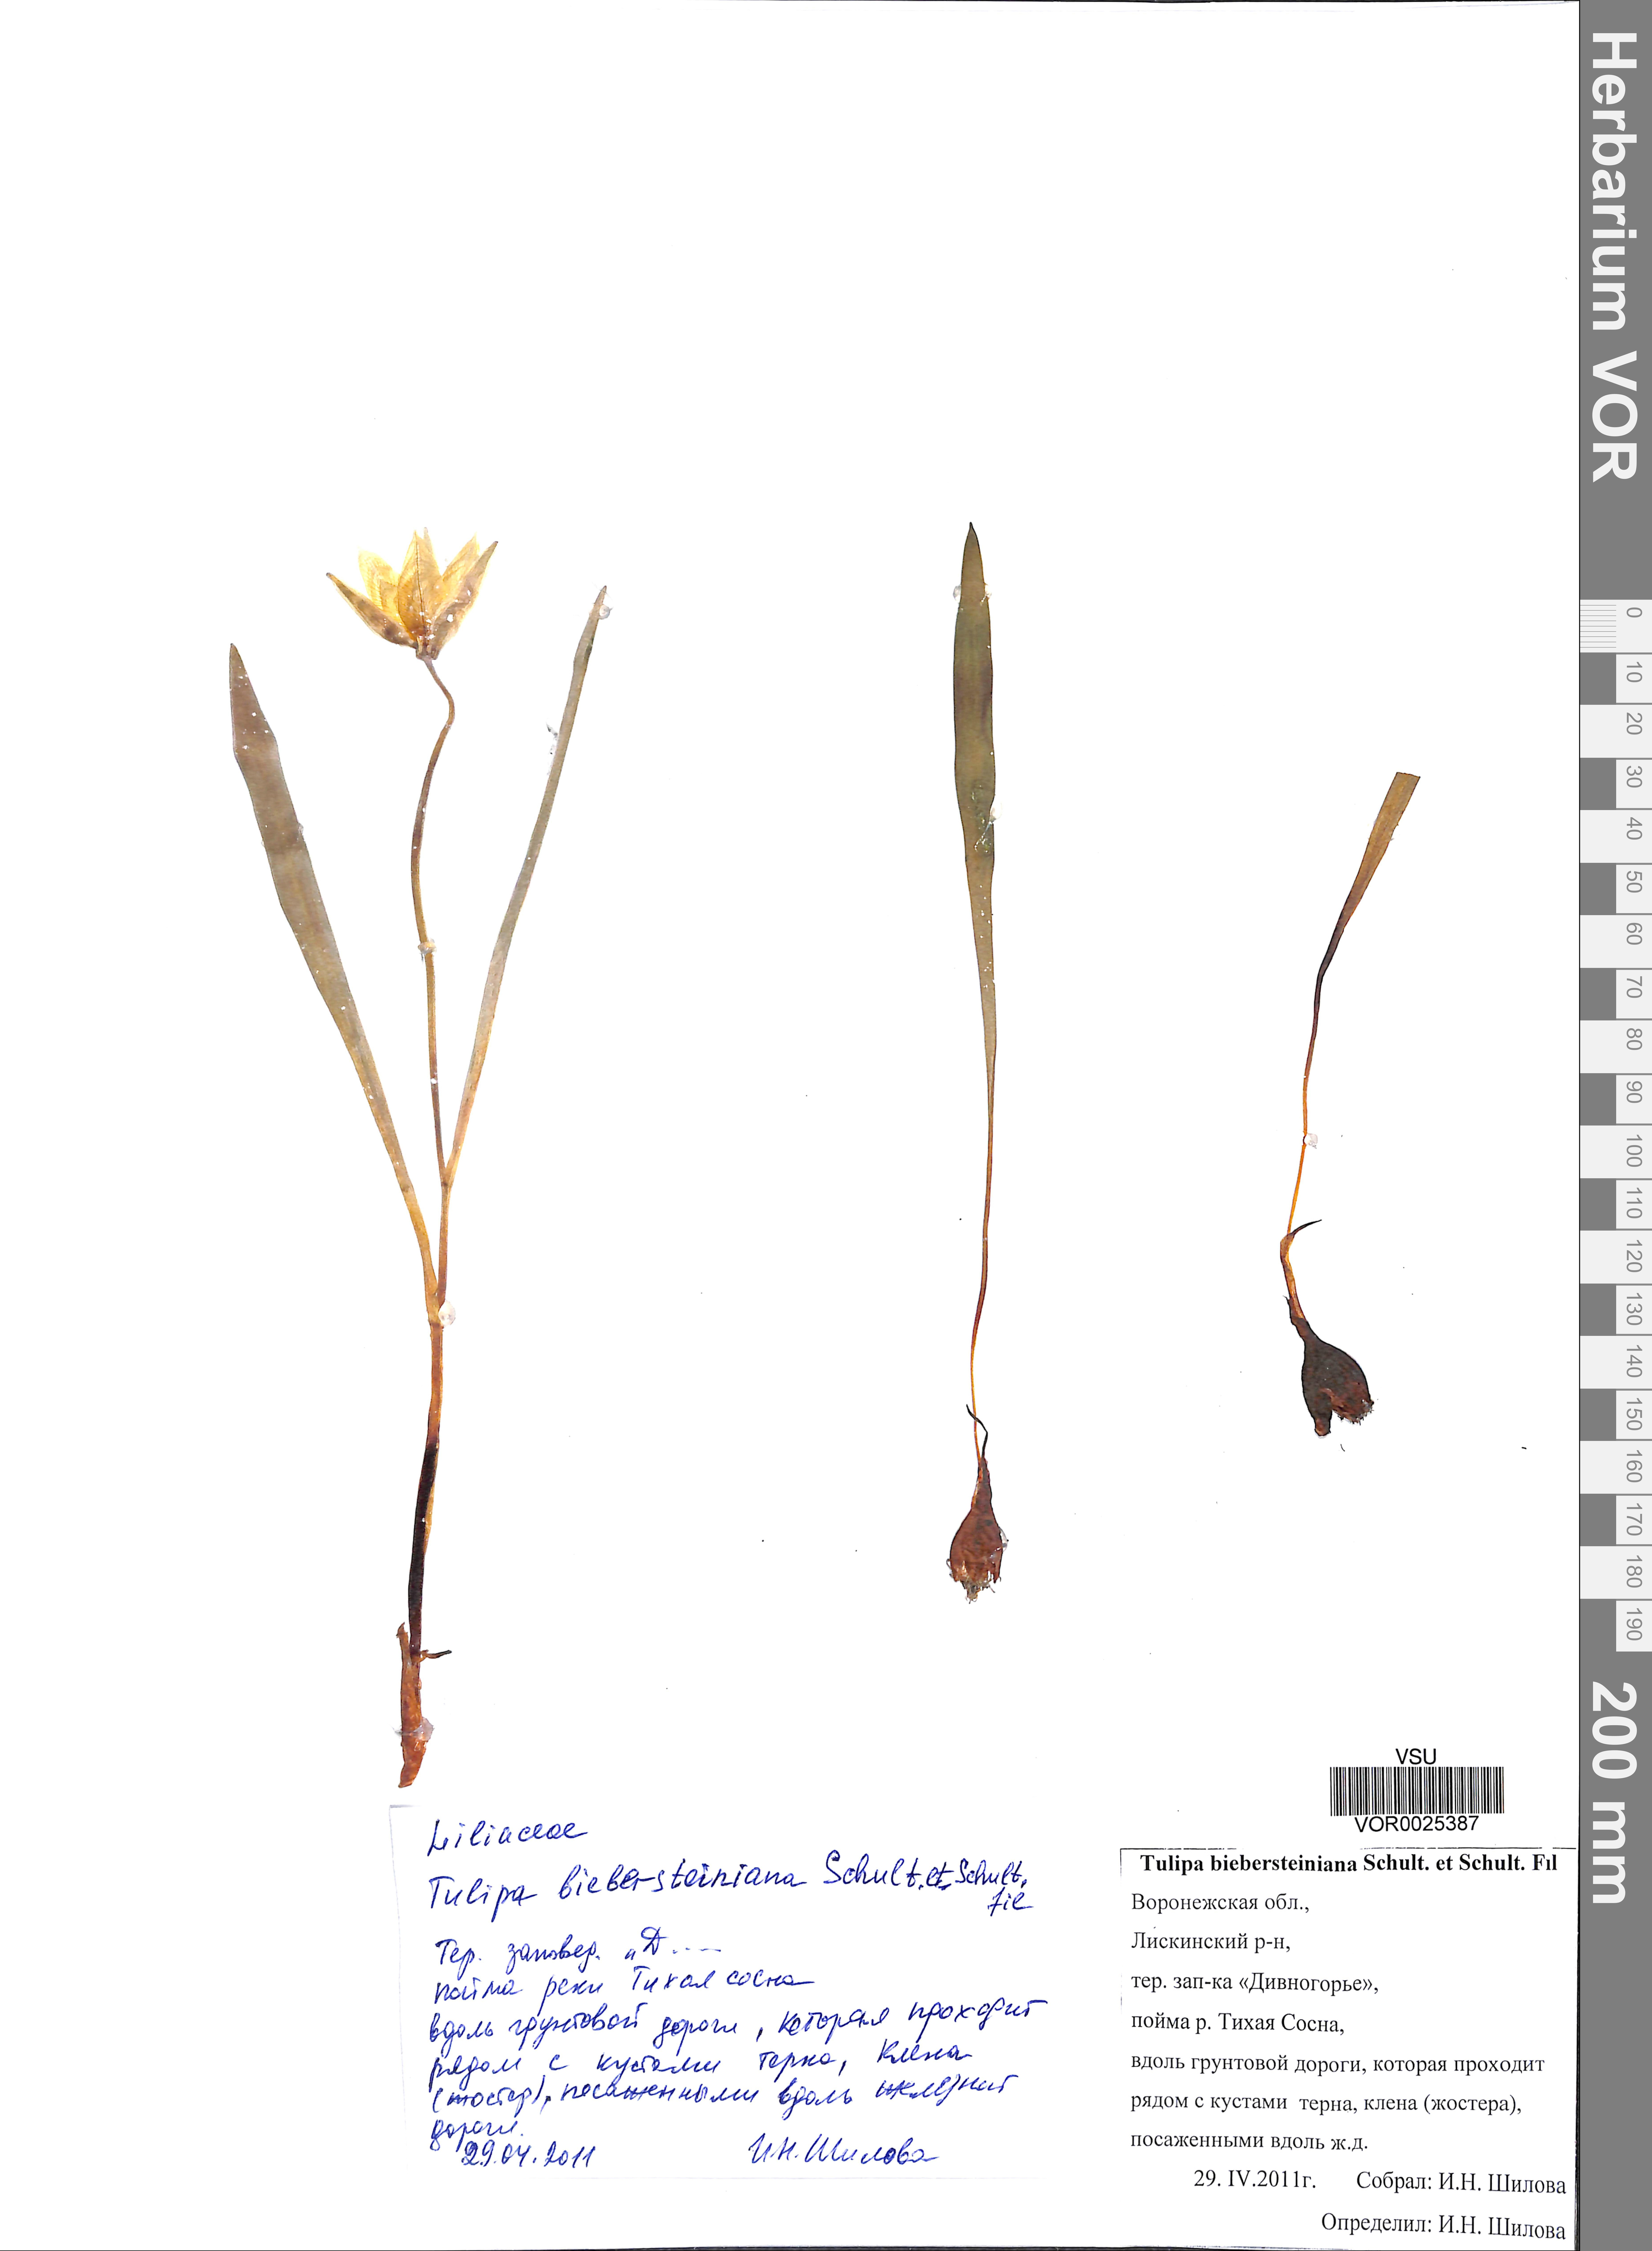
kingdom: Plantae
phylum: Tracheophyta
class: Liliopsida
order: Liliales
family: Liliaceae
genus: Tulipa
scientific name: Tulipa sylvestris
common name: Wild tulip
